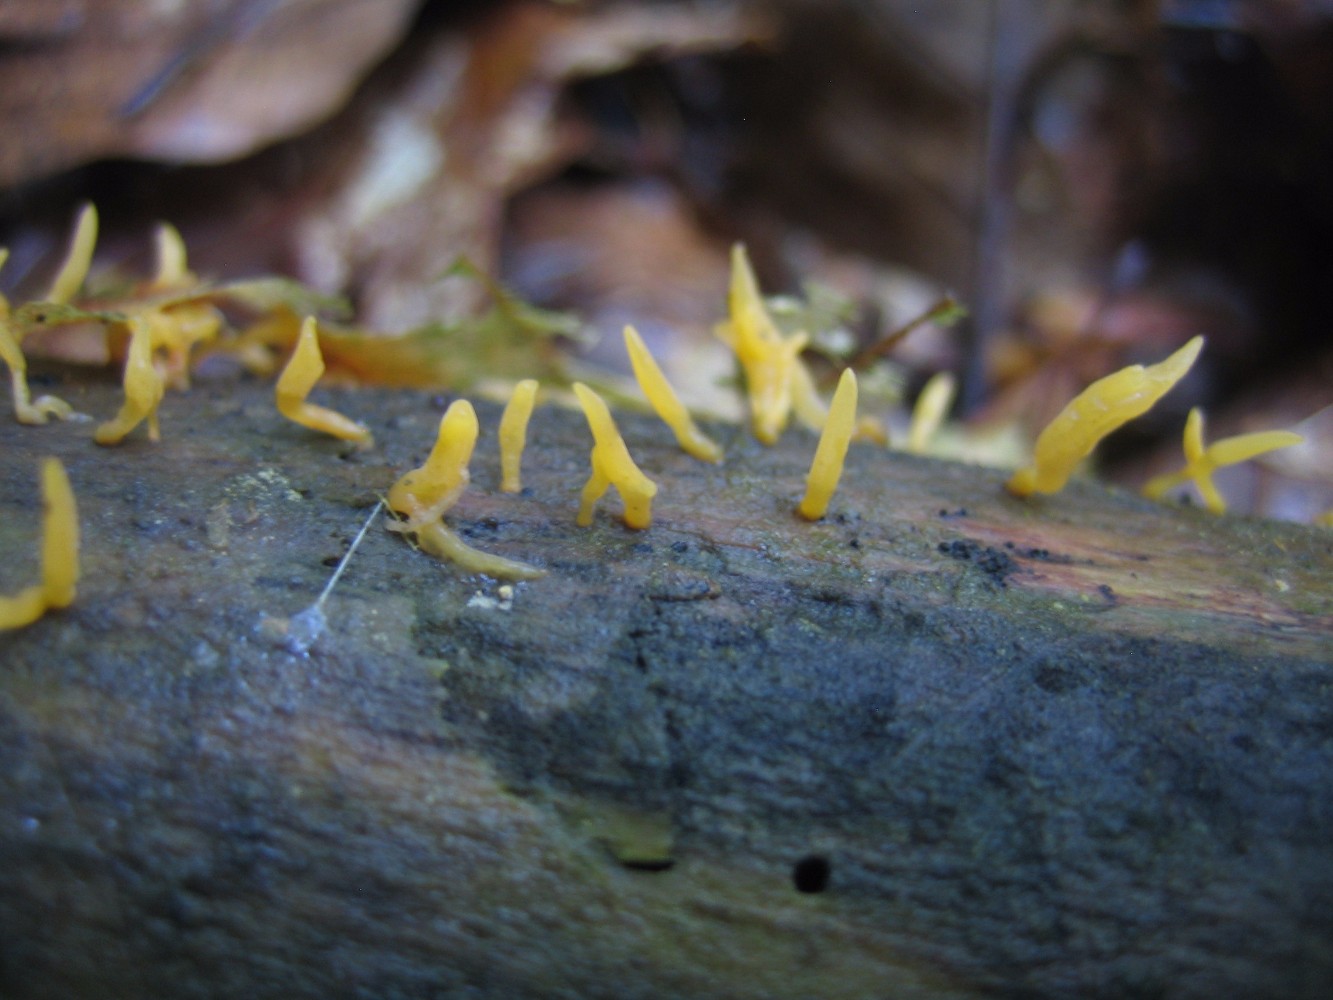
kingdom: Fungi
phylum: Basidiomycota
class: Dacrymycetes
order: Dacrymycetales
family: Dacrymycetaceae
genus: Calocera
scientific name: Calocera cornea
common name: liden guldgaffel
